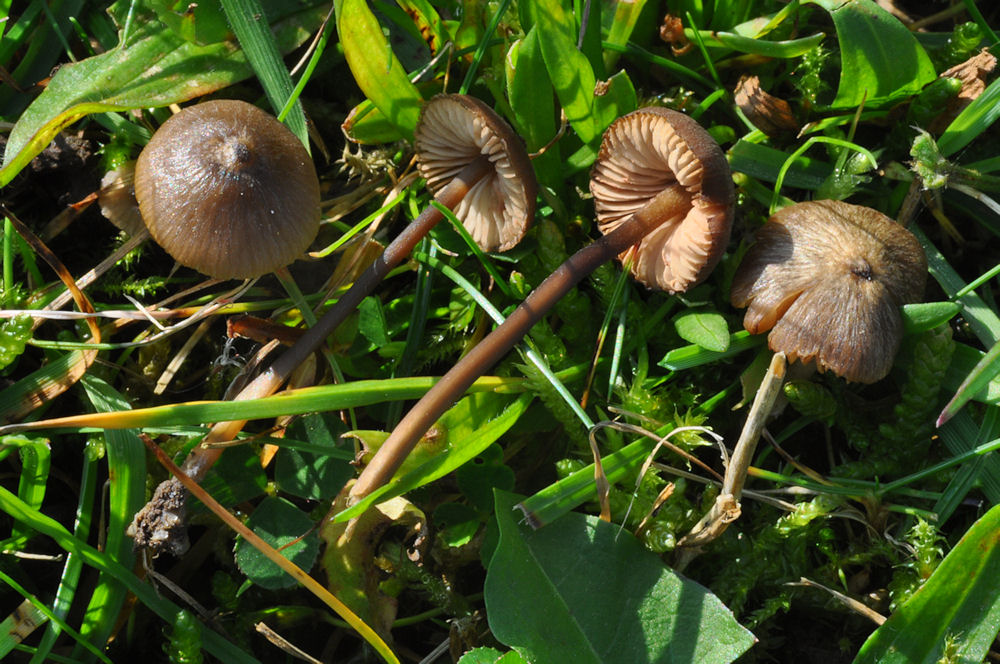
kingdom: Fungi
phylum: Basidiomycota
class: Agaricomycetes
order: Agaricales
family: Entolomataceae
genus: Entoloma
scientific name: Entoloma hebes
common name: krat-rødblad
